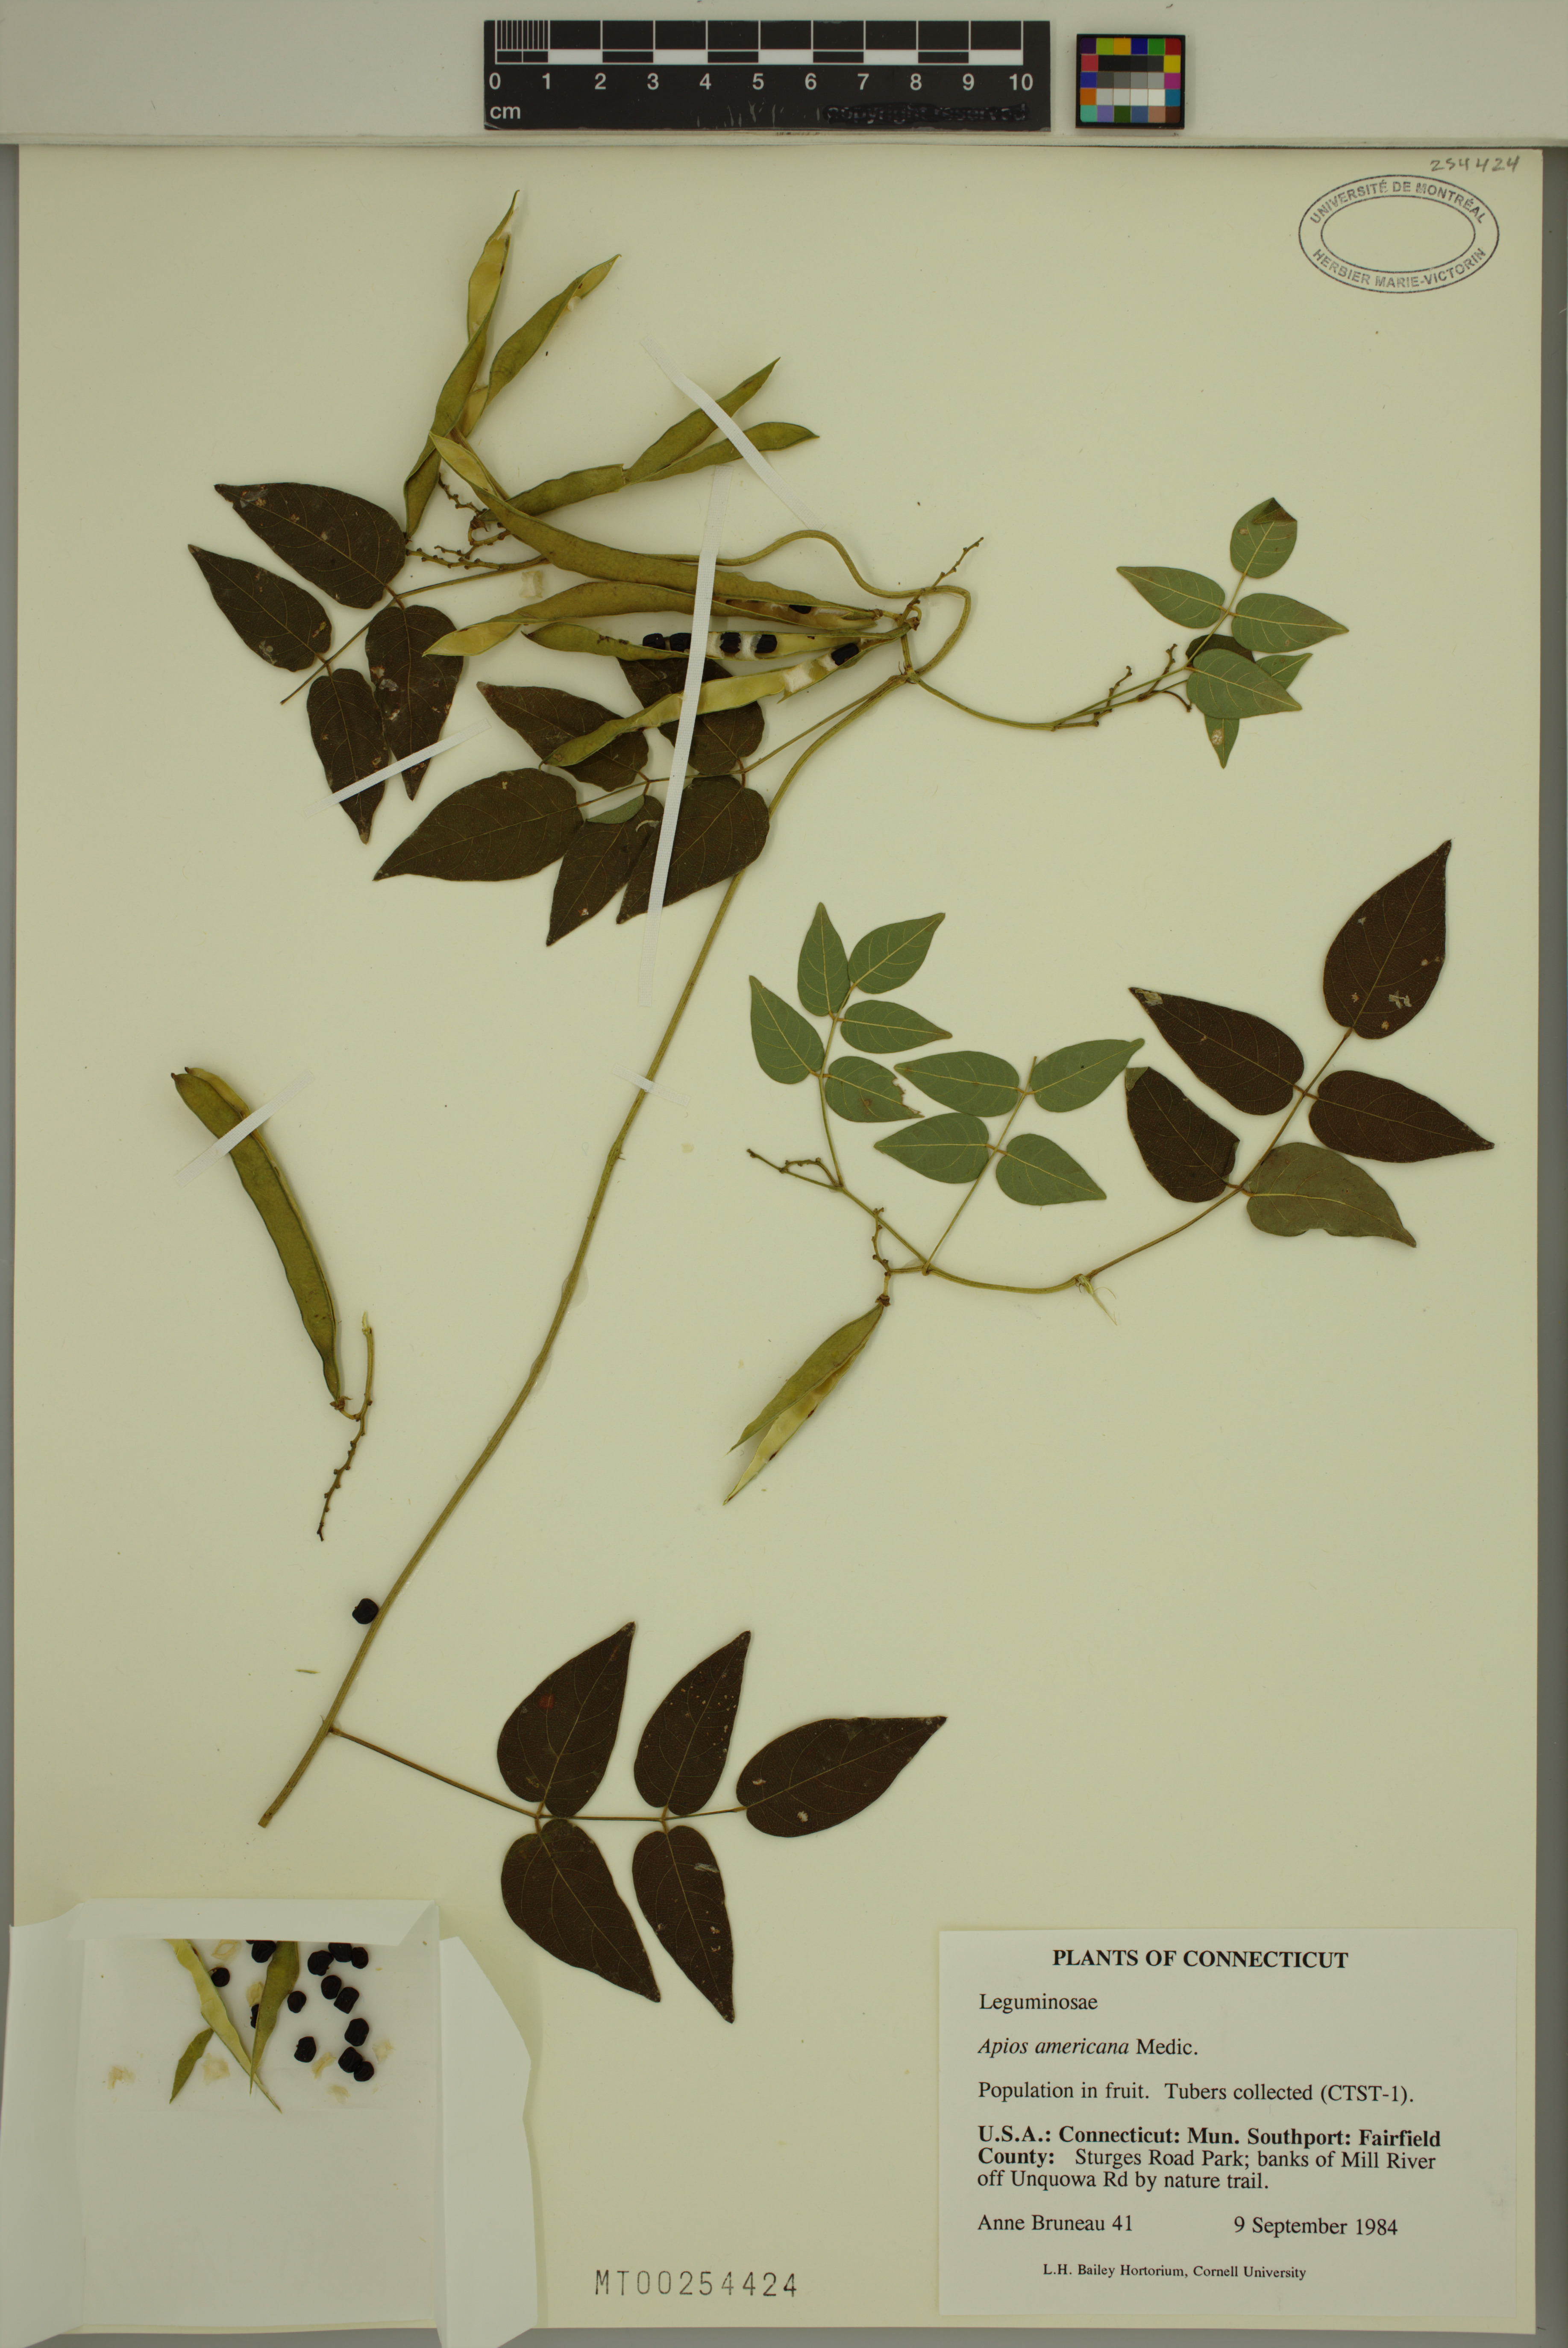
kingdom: Plantae
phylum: Tracheophyta
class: Magnoliopsida
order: Fabales
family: Fabaceae
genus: Apios
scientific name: Apios americana
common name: American potato-bean
